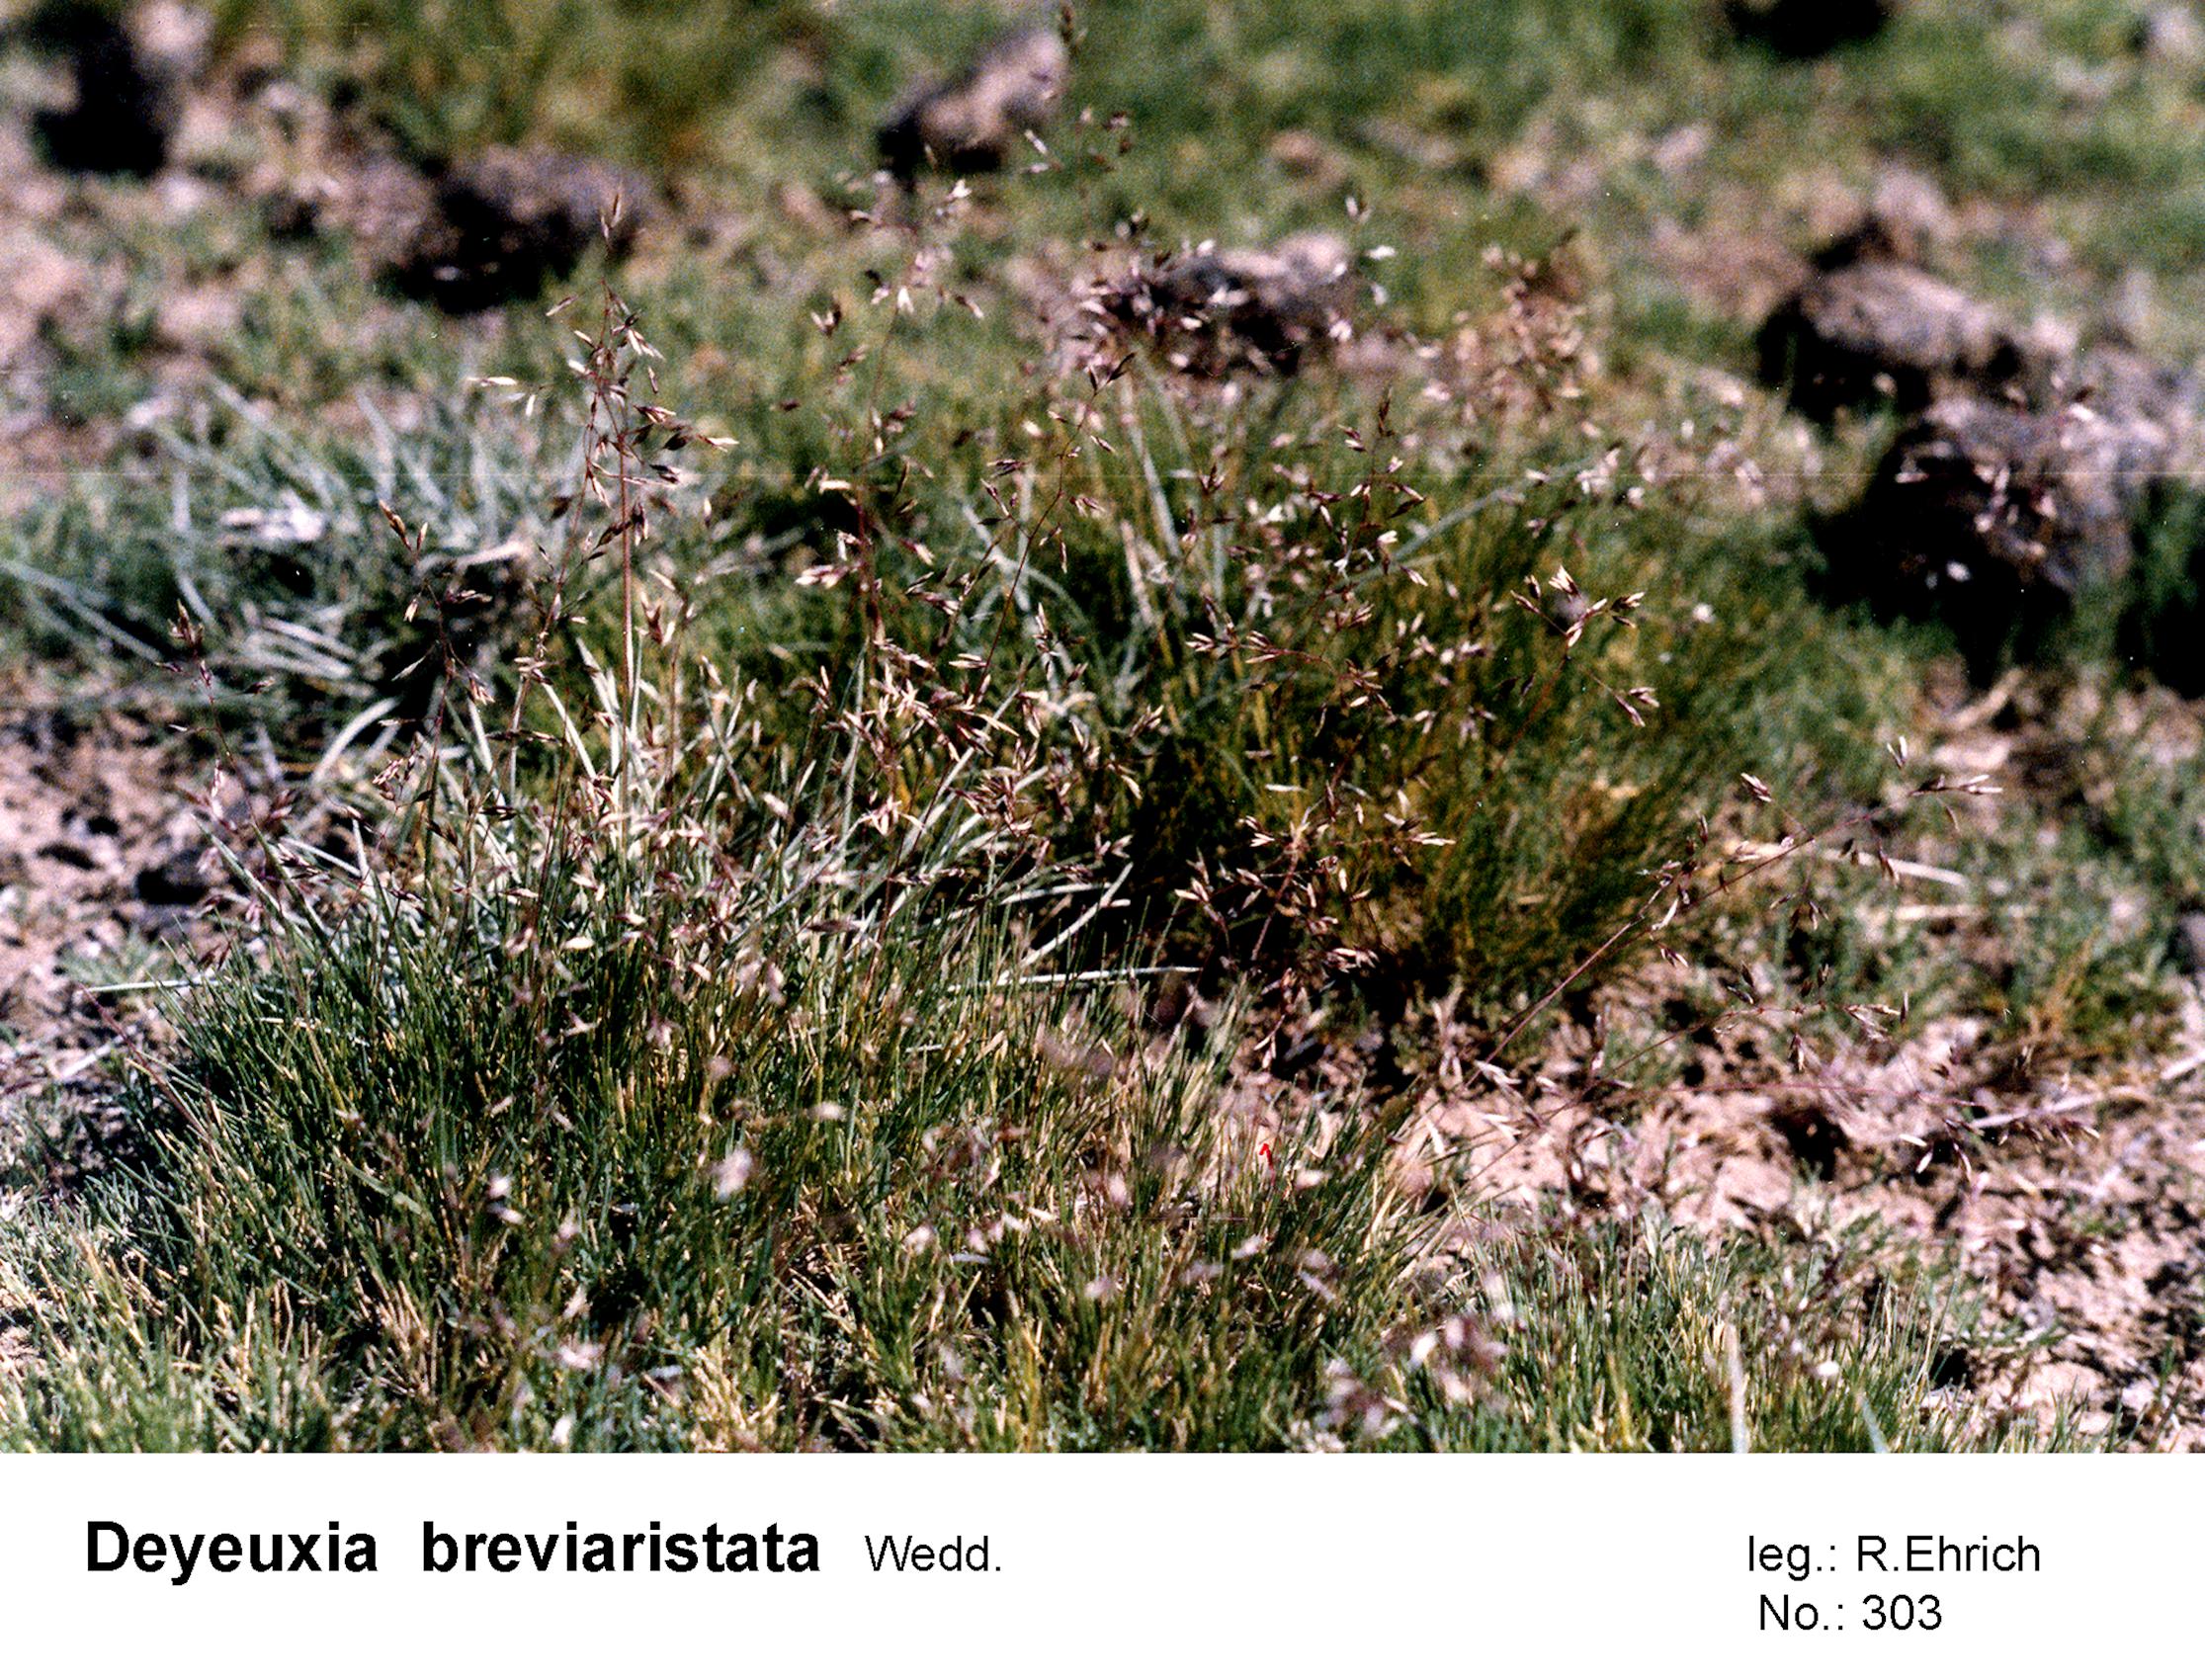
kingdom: Plantae
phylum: Tracheophyta
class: Liliopsida
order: Poales
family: Poaceae
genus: Cinnagrostis
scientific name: Cinnagrostis breviaristata
